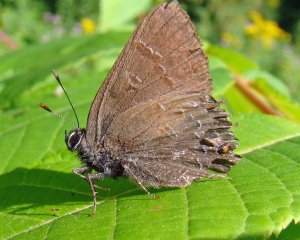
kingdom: Animalia
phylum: Arthropoda
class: Insecta
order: Lepidoptera
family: Lycaenidae
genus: Satyrium
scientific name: Satyrium calanus
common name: Banded Hairstreak
